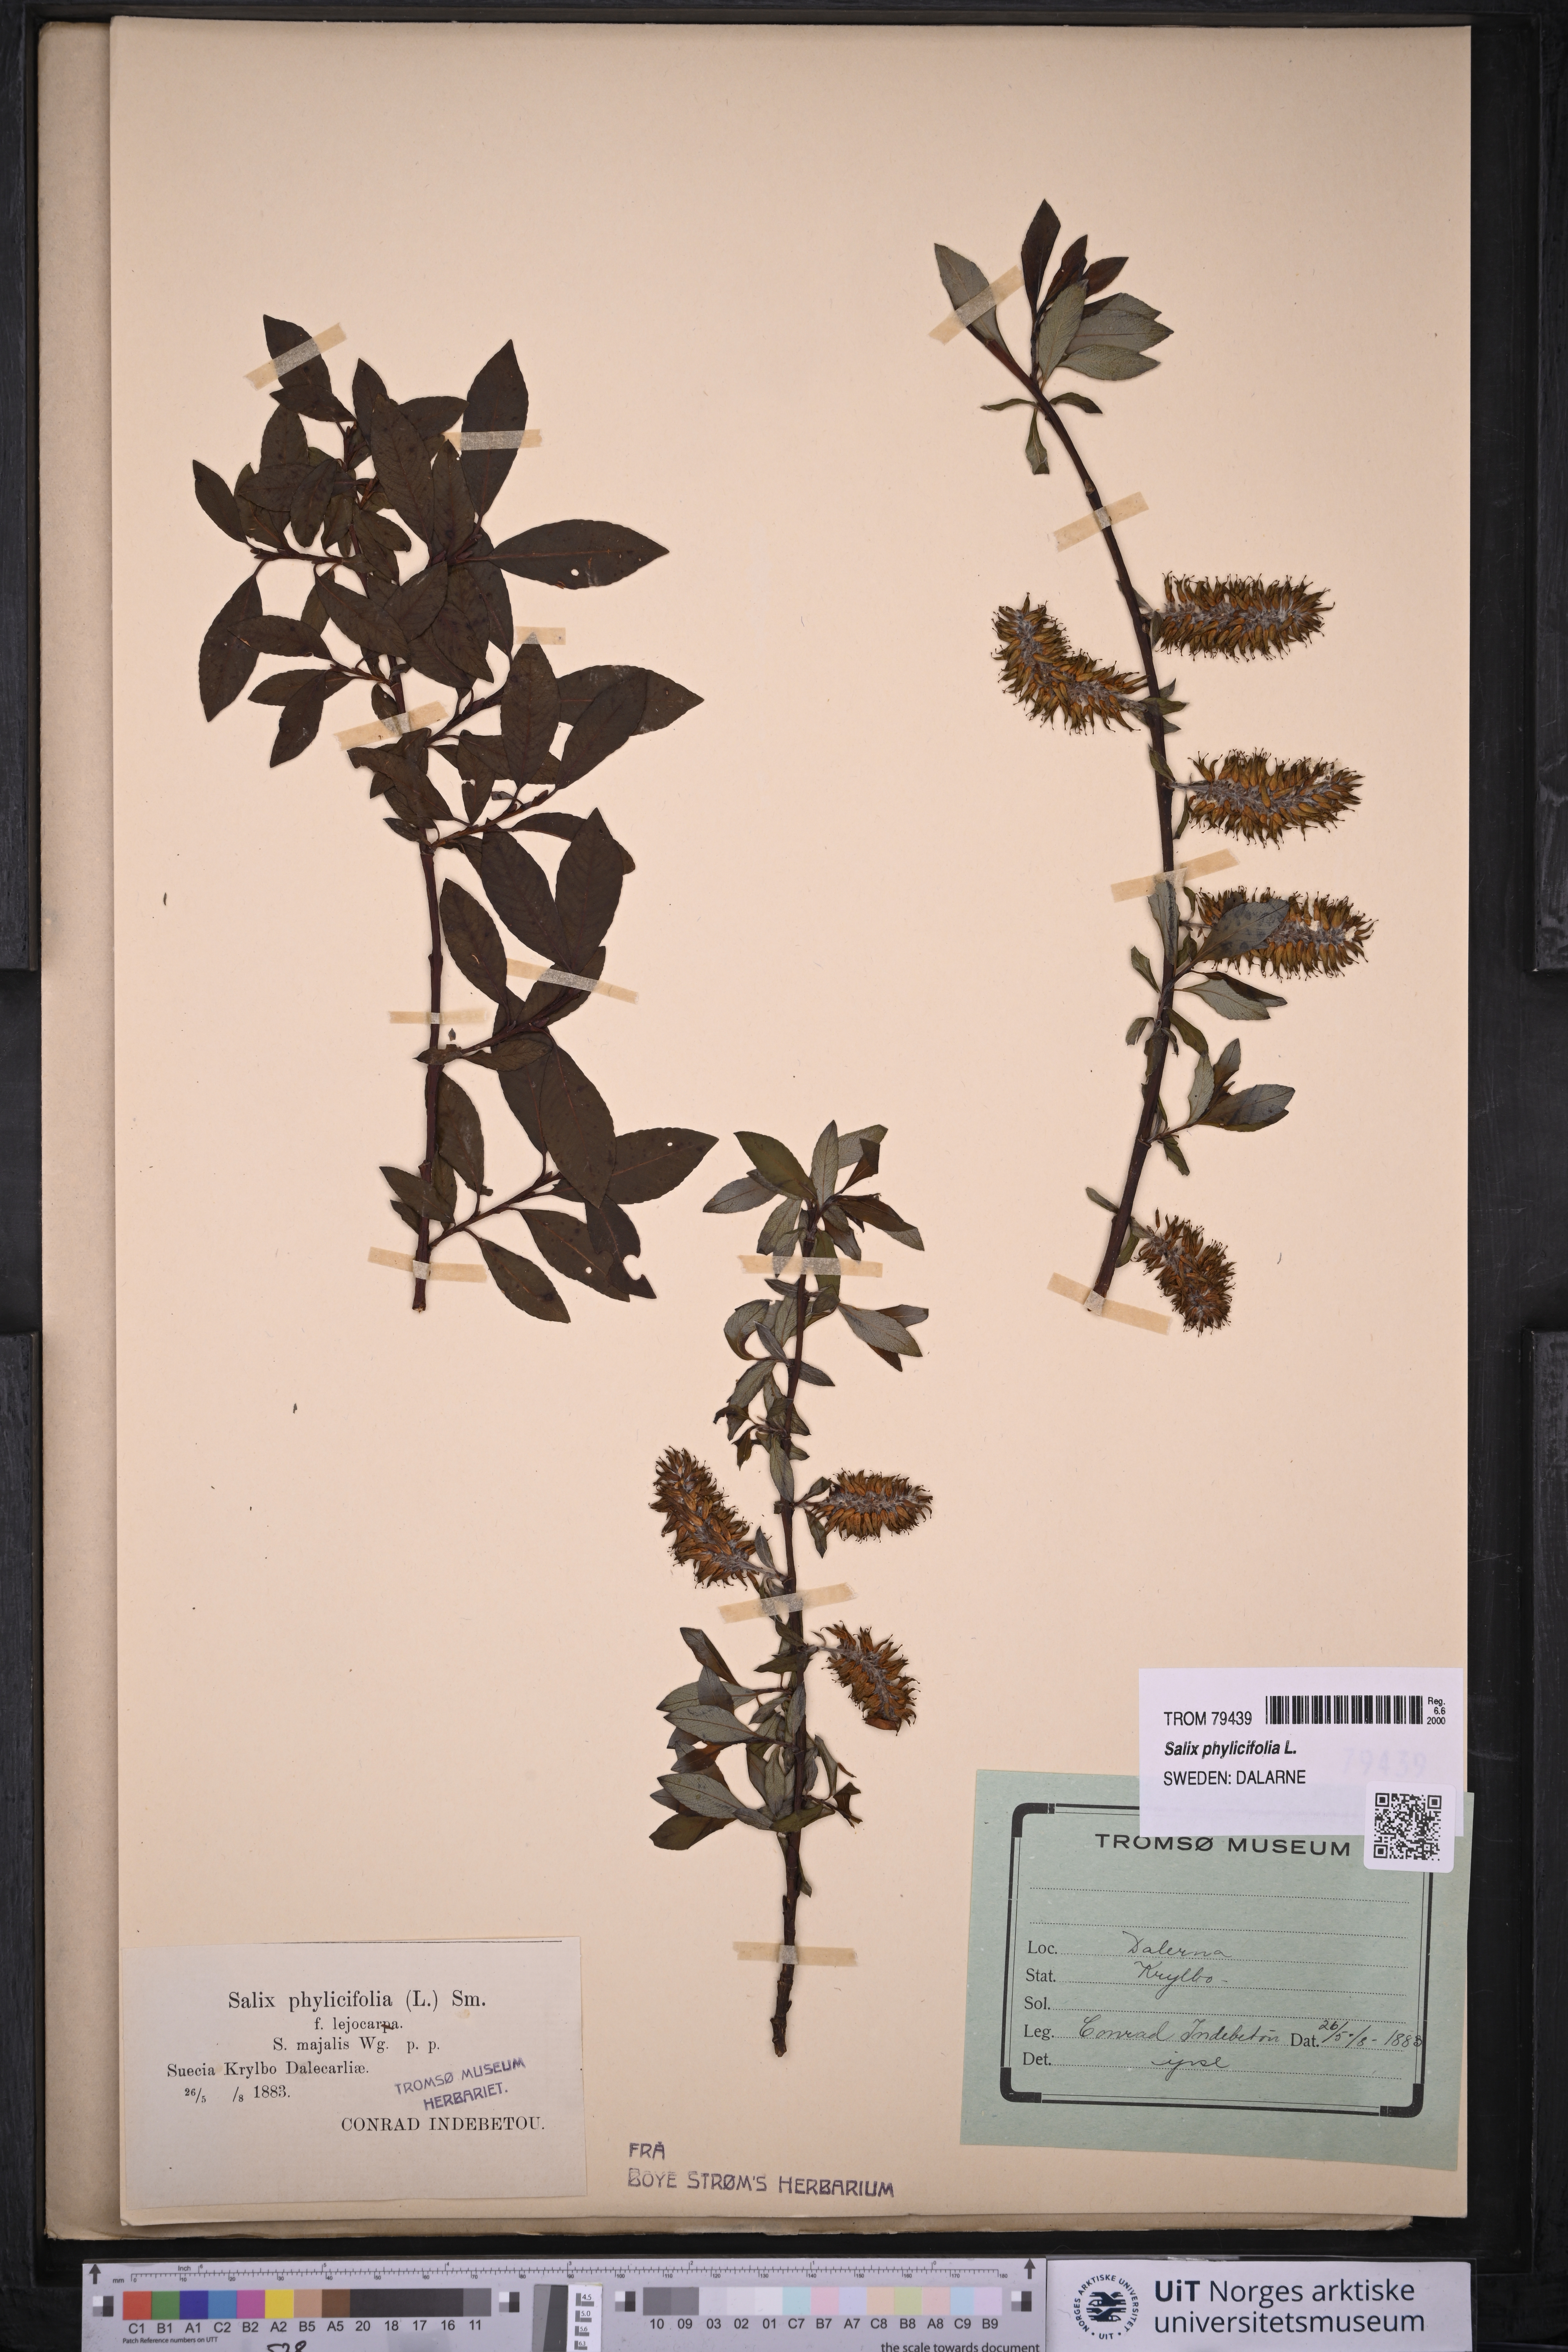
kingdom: Plantae
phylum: Tracheophyta
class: Magnoliopsida
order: Malpighiales
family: Salicaceae
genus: Salix
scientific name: Salix phylicifolia
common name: Tea-leaved willow
